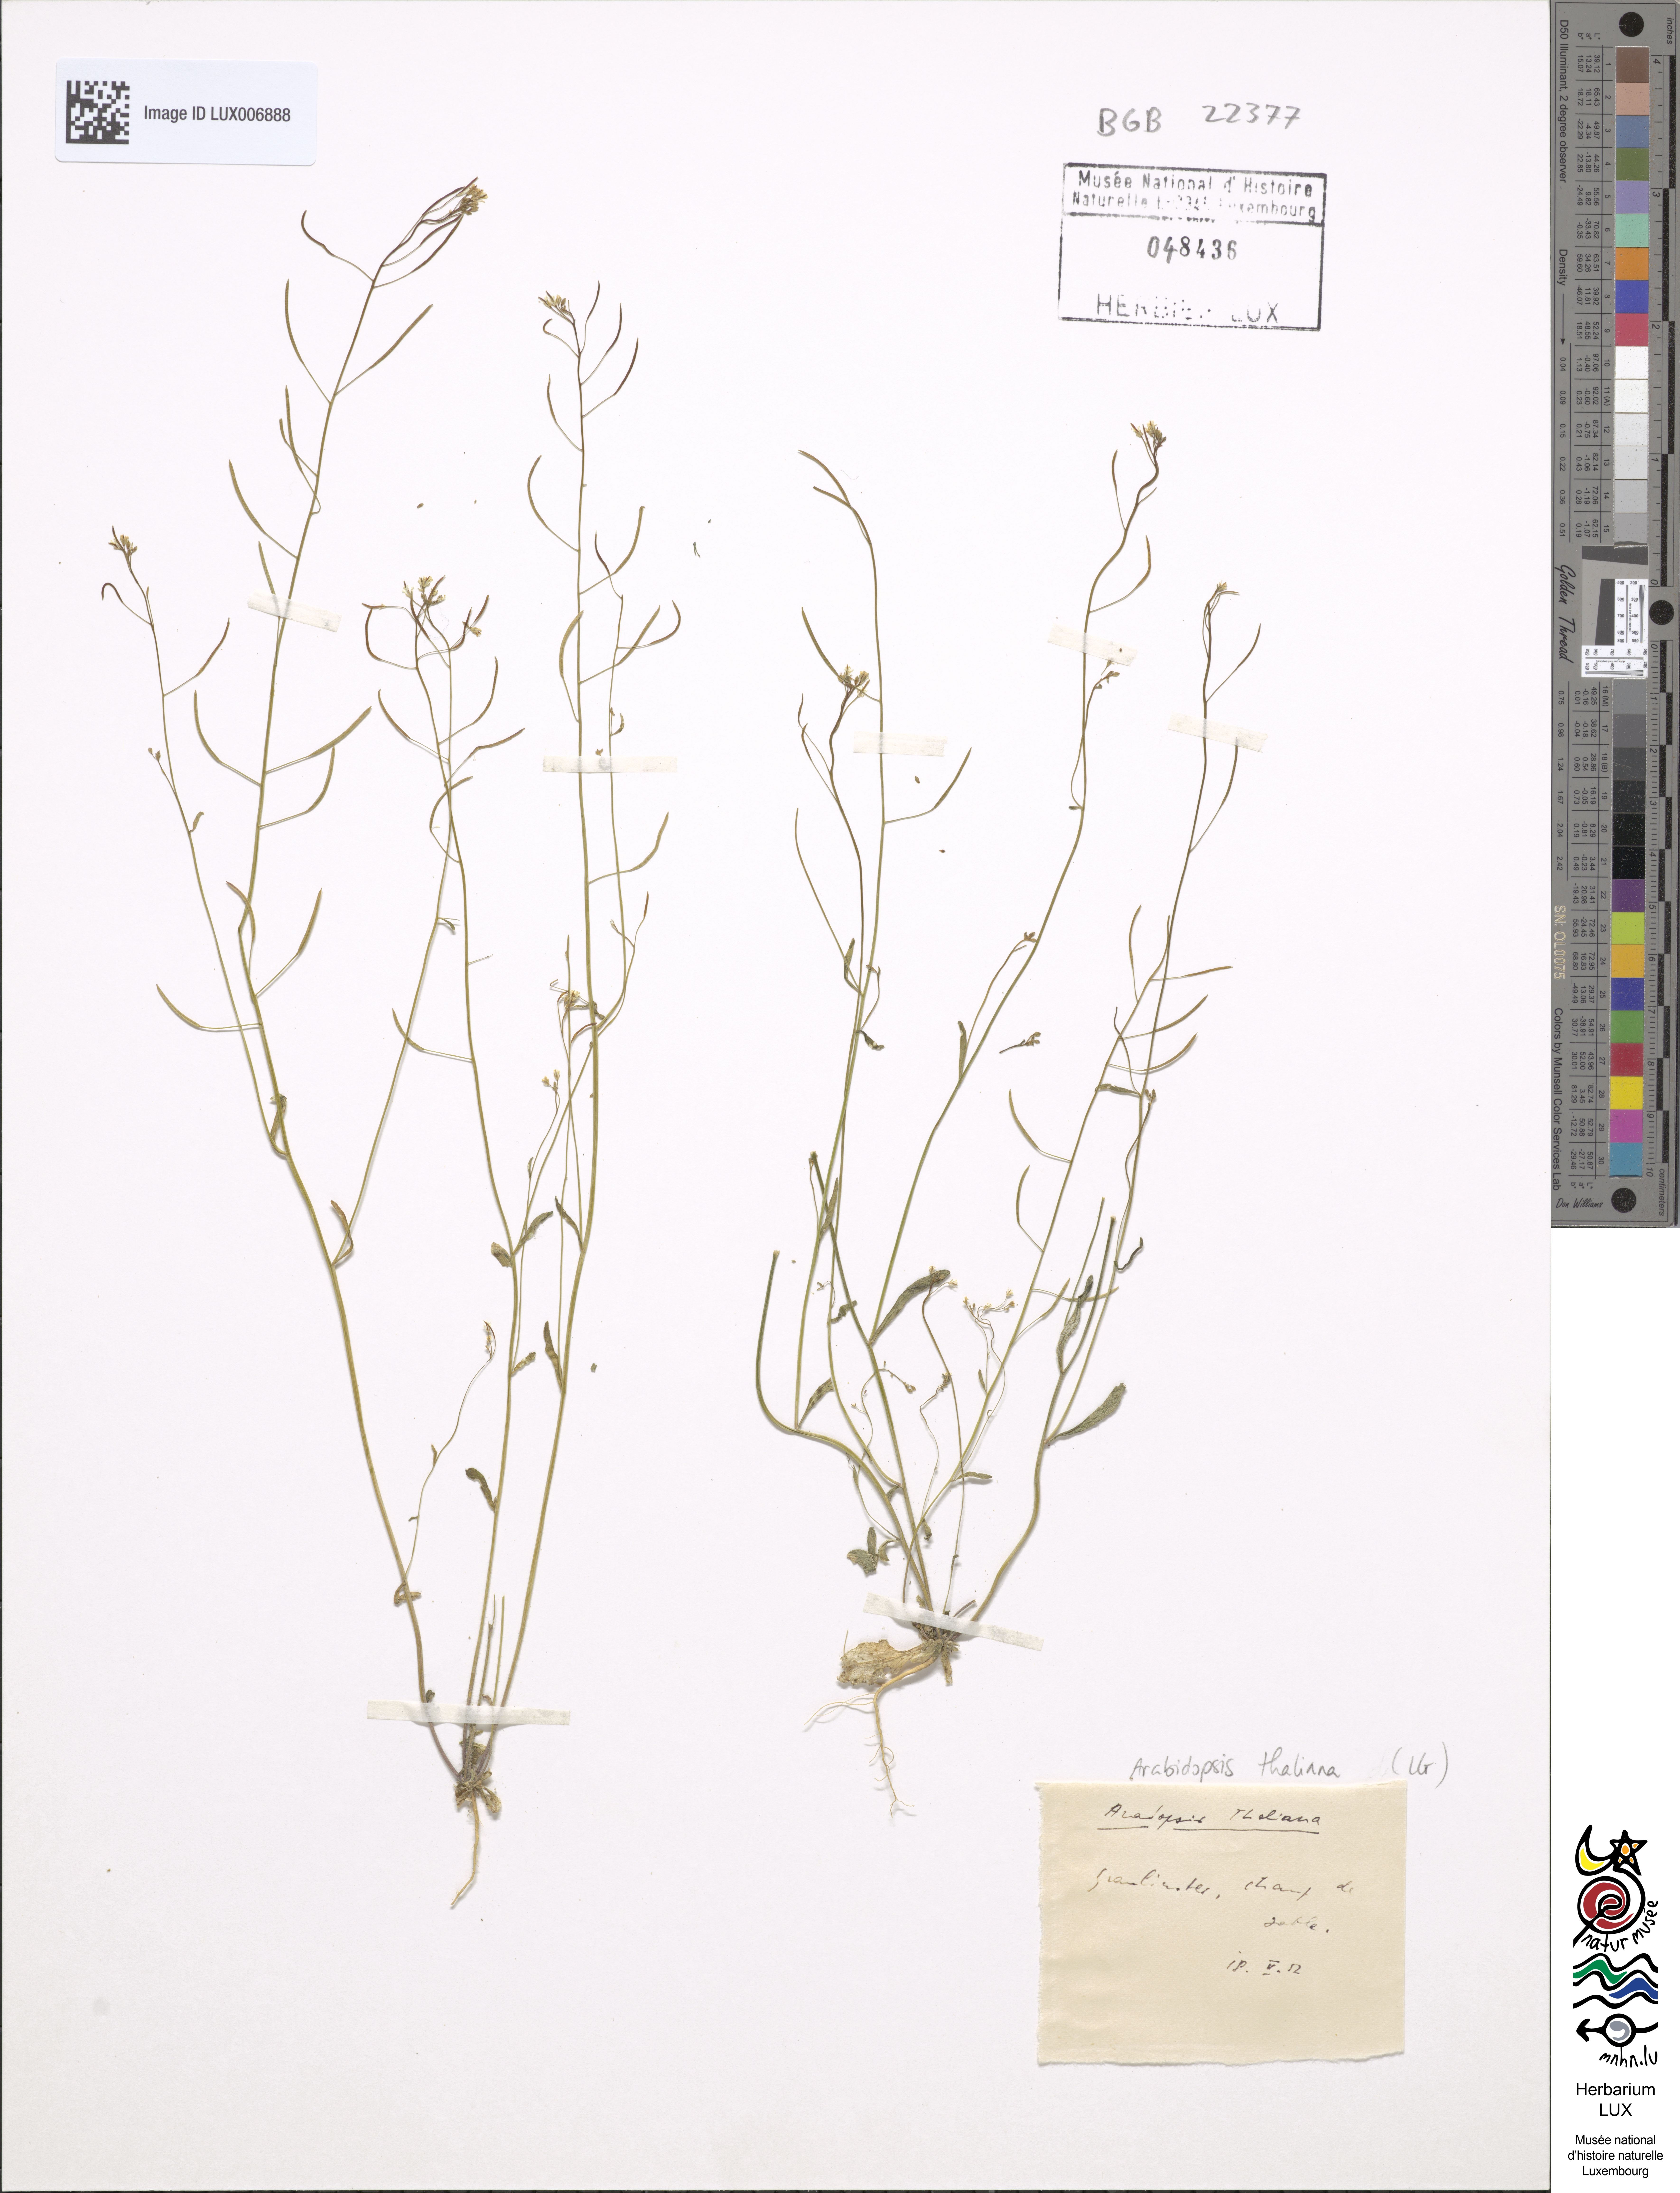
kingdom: Plantae
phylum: Tracheophyta
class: Magnoliopsida
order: Brassicales
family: Brassicaceae
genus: Arabidopsis
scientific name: Arabidopsis thaliana
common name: Thale cress
